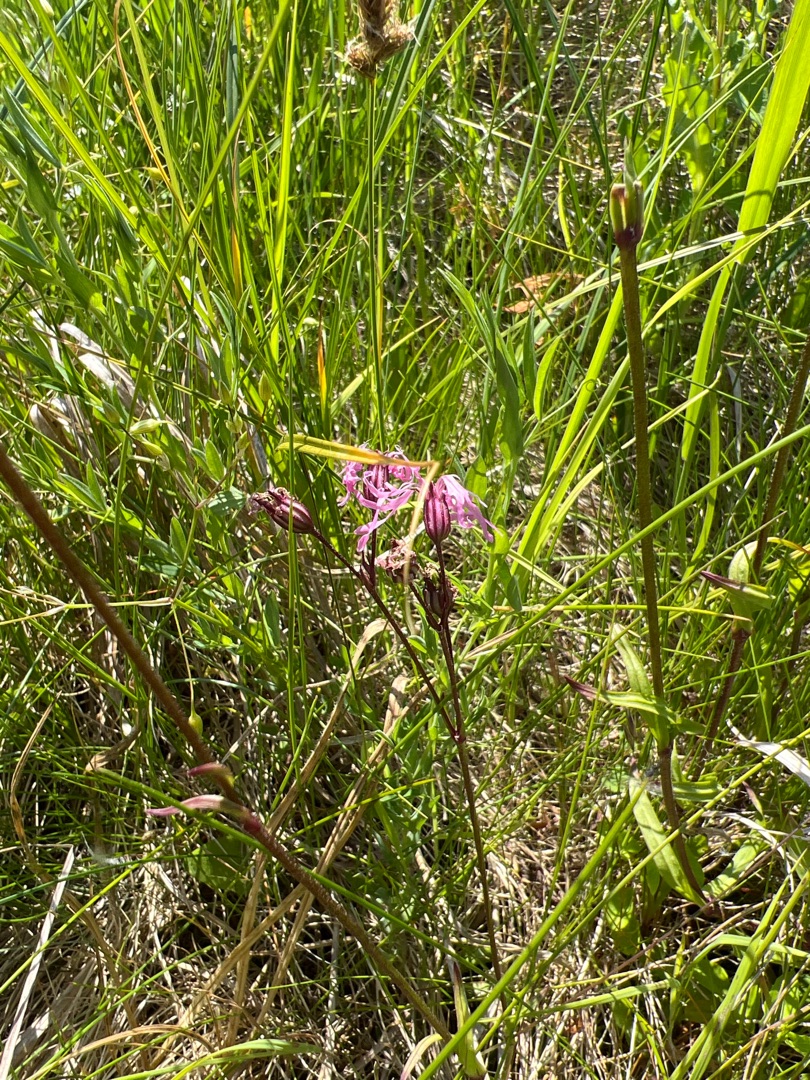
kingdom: Plantae
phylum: Tracheophyta
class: Magnoliopsida
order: Caryophyllales
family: Caryophyllaceae
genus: Silene
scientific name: Silene flos-cuculi
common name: Trævlekrone
